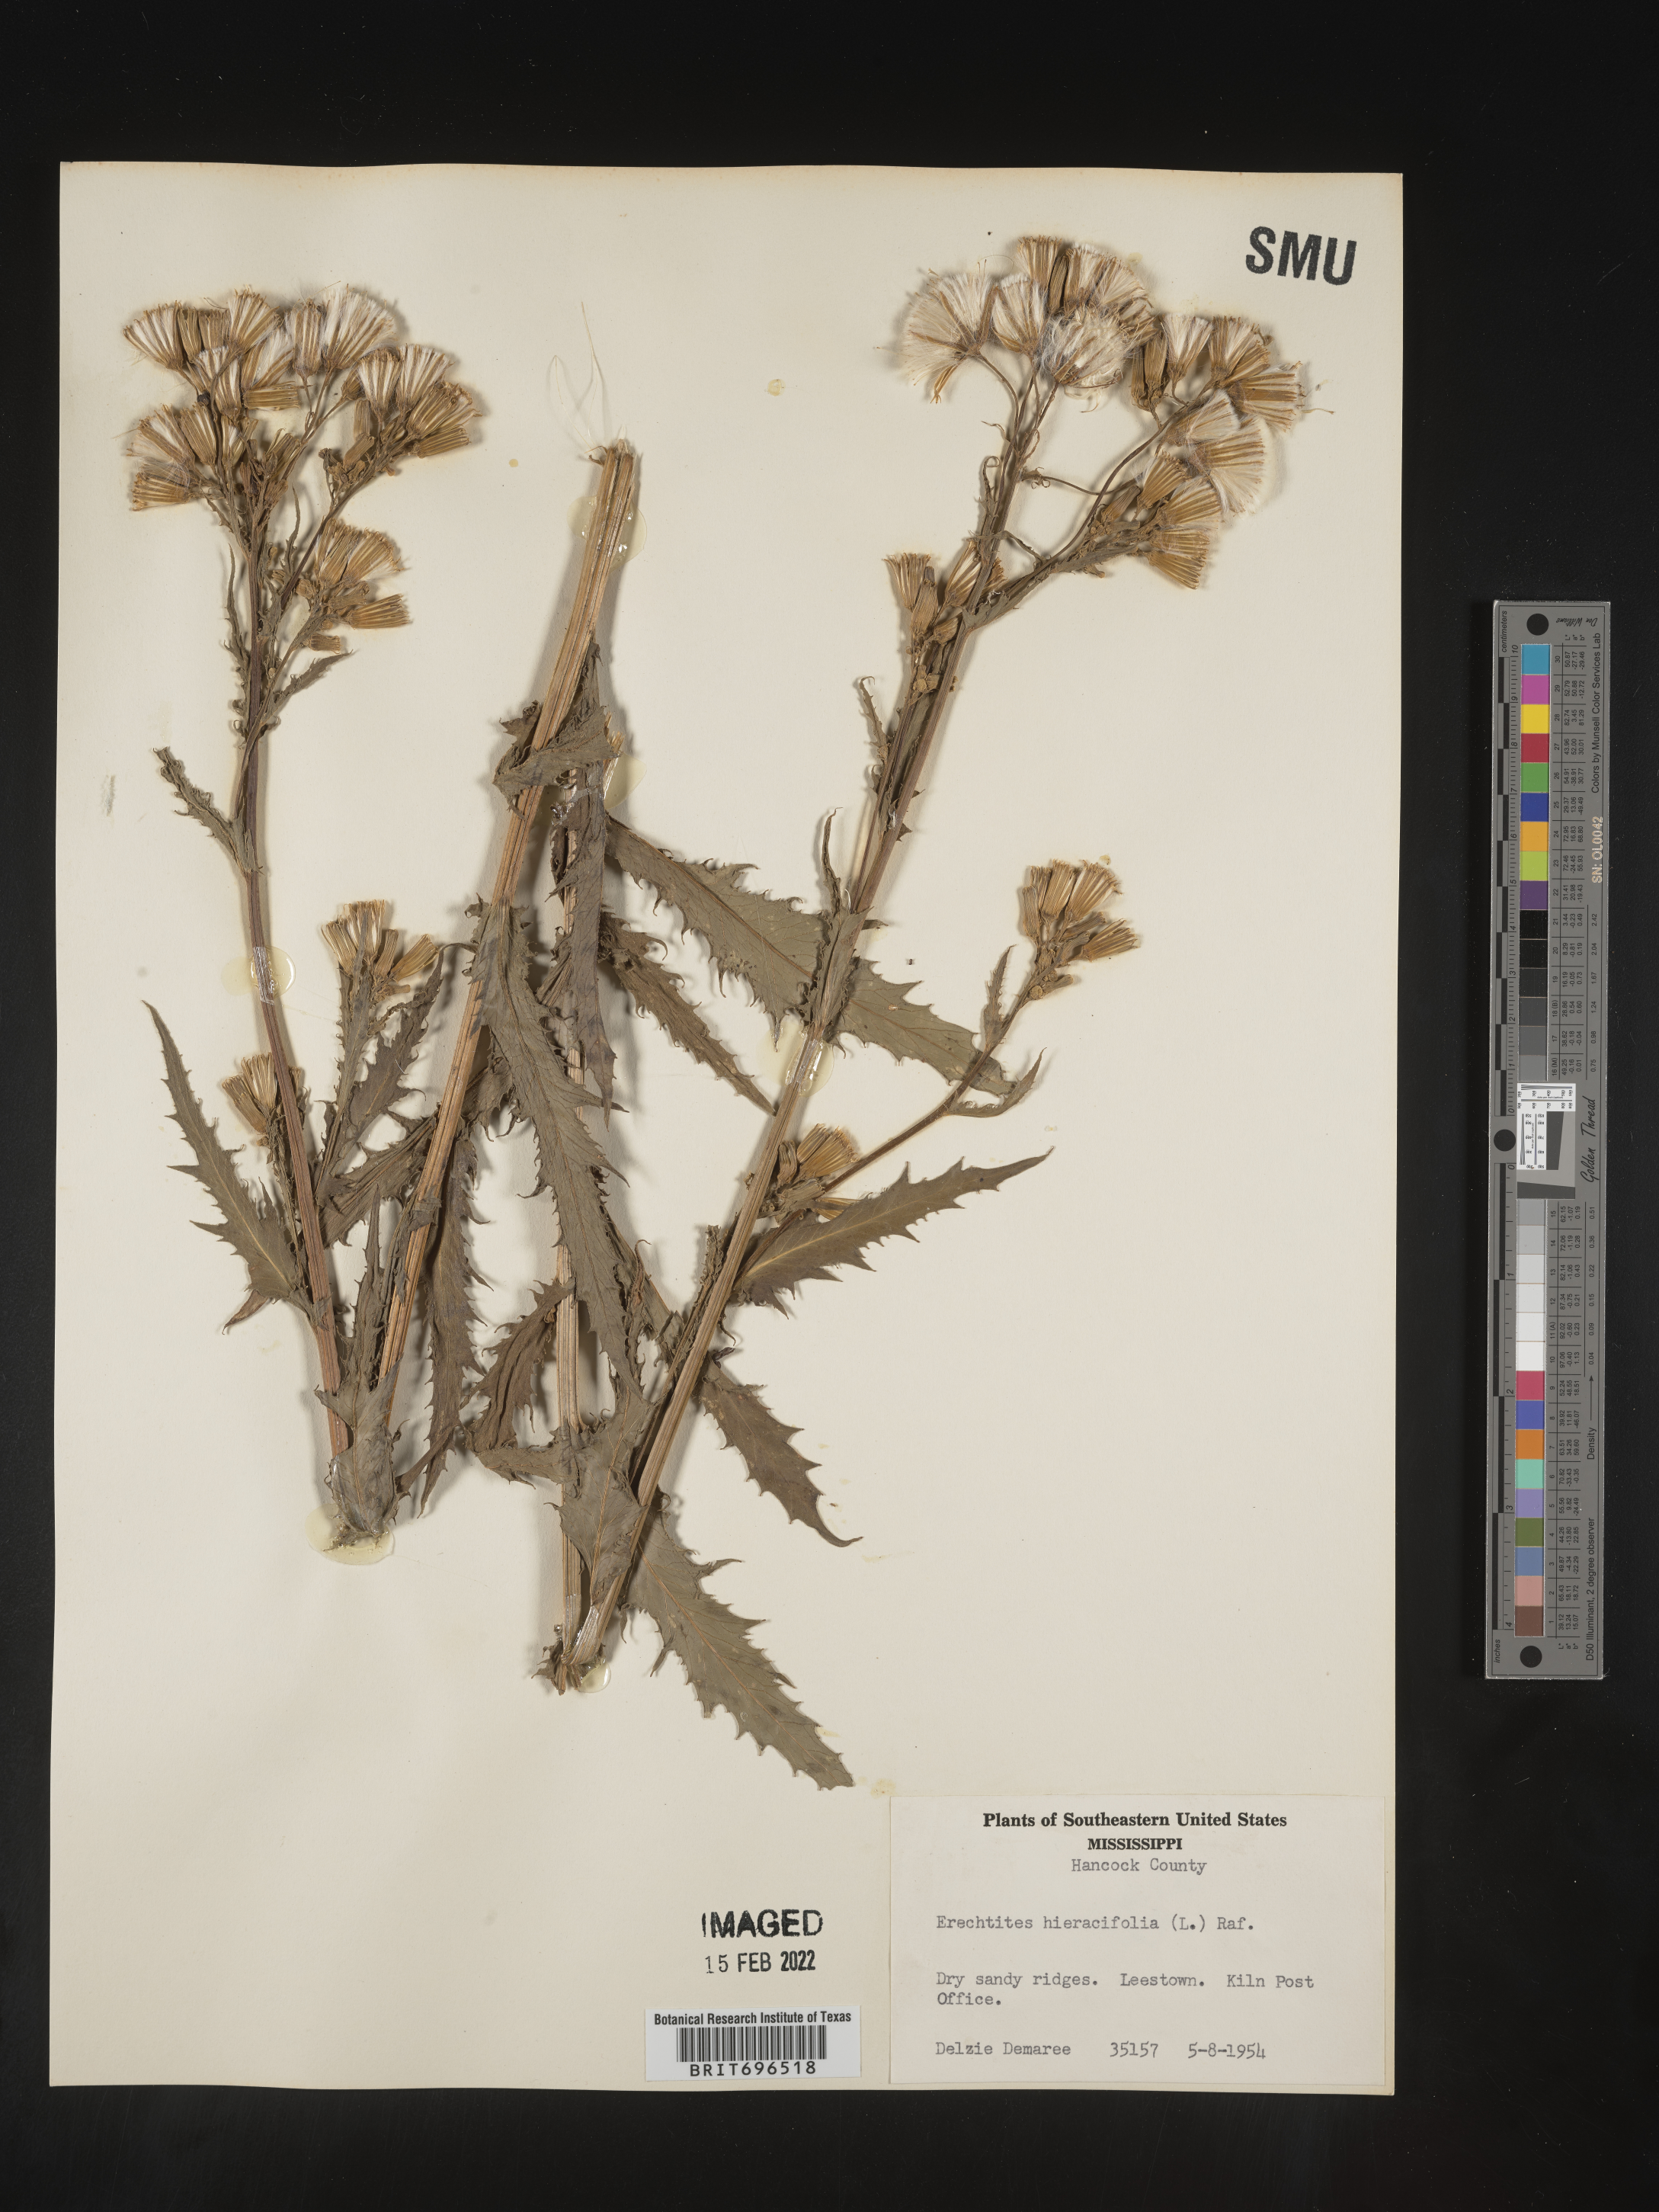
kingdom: Plantae
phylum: Tracheophyta
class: Magnoliopsida
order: Asterales
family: Asteraceae
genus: Erechtites
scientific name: Erechtites hieraciifolius
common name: American burnweed
